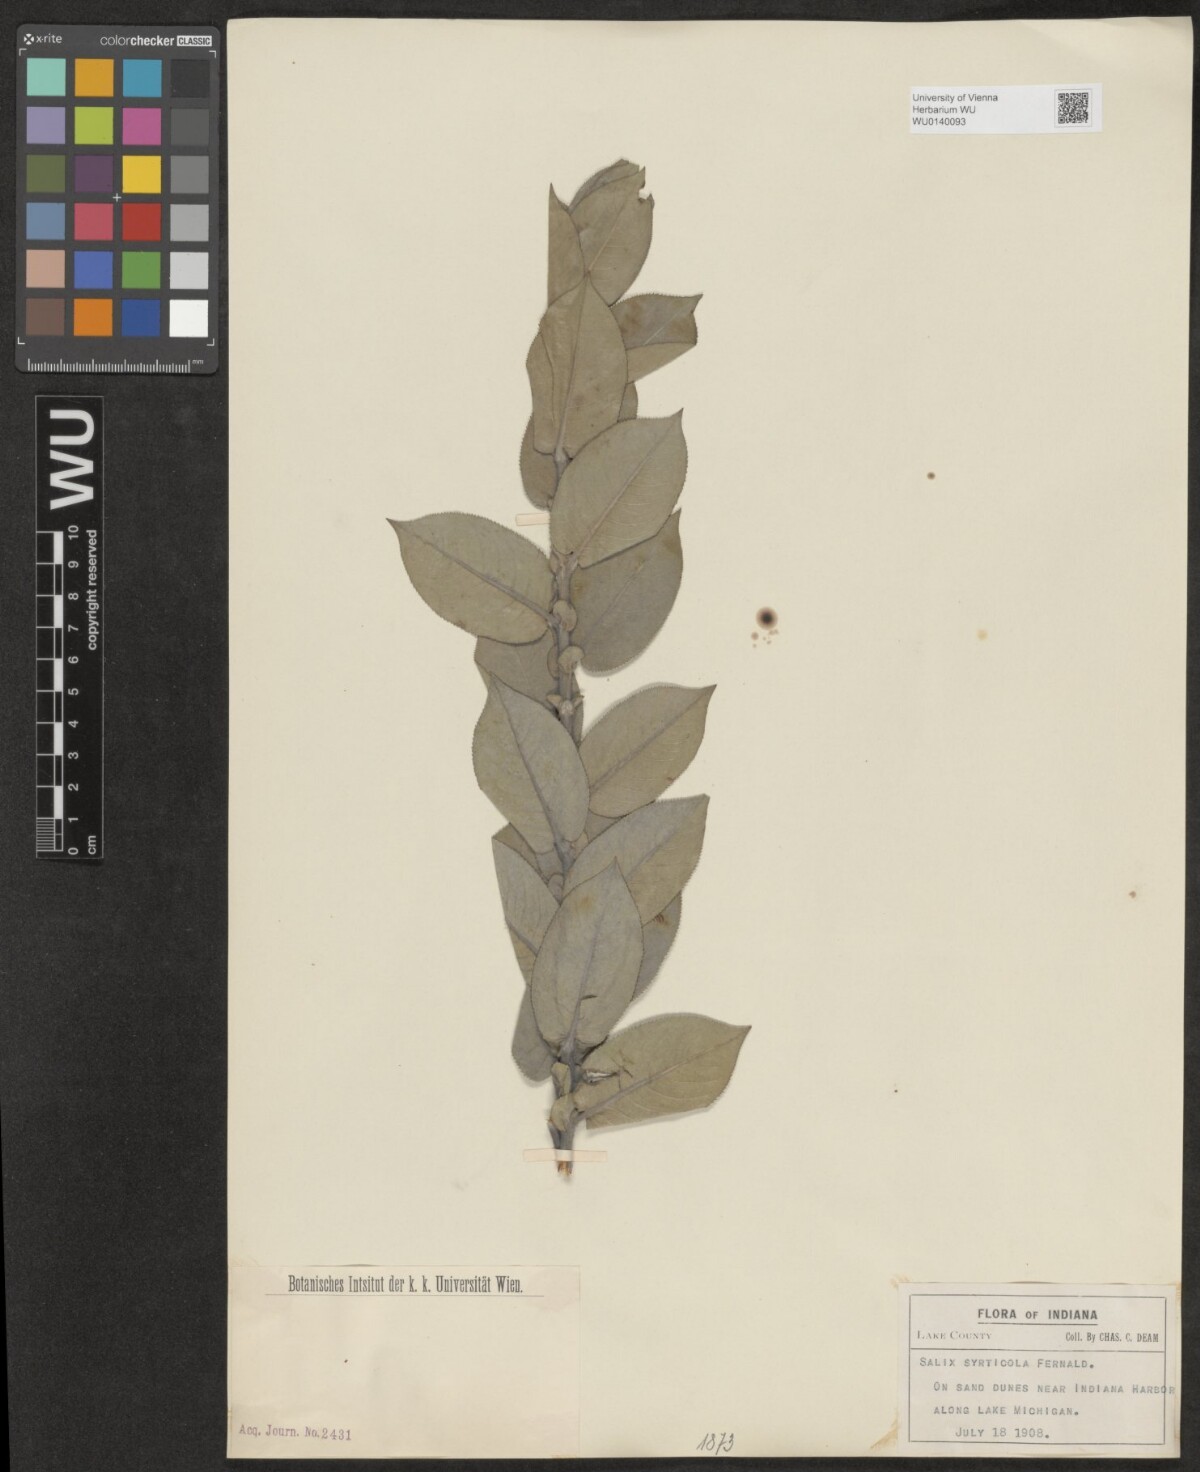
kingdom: Plantae
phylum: Tracheophyta
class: Magnoliopsida
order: Malpighiales
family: Salicaceae
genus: Salix
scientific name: Salix cordata
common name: Heart-leaf willow
